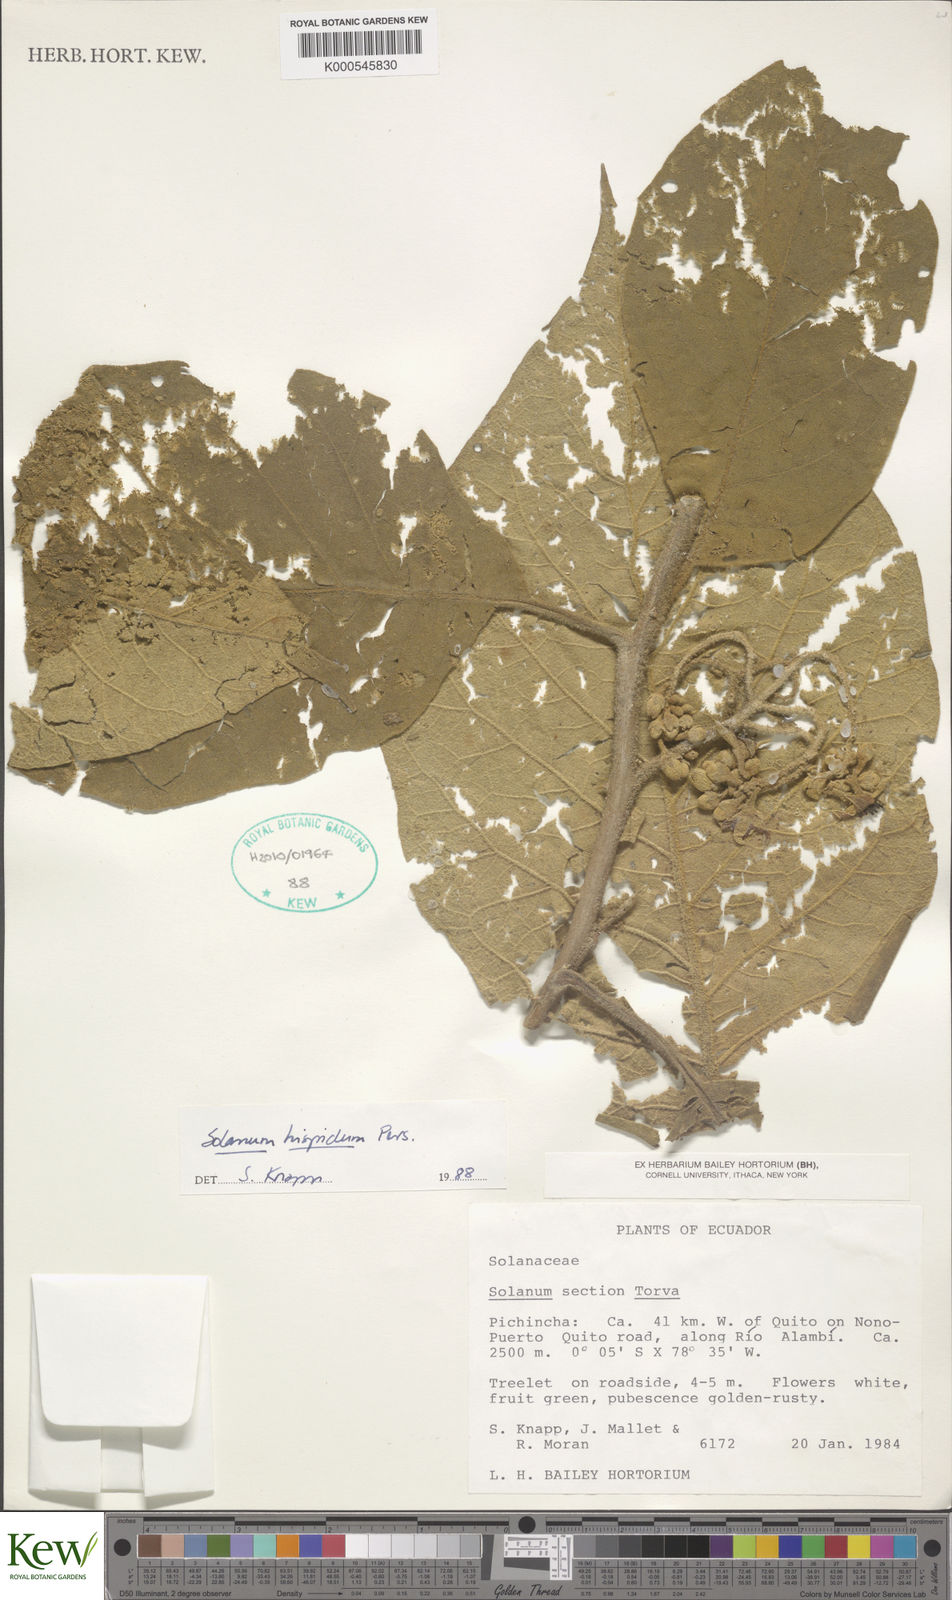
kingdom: Plantae
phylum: Tracheophyta
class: Magnoliopsida
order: Solanales
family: Solanaceae
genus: Solanum
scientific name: Solanum asperolanatum
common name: Devil's-fig
